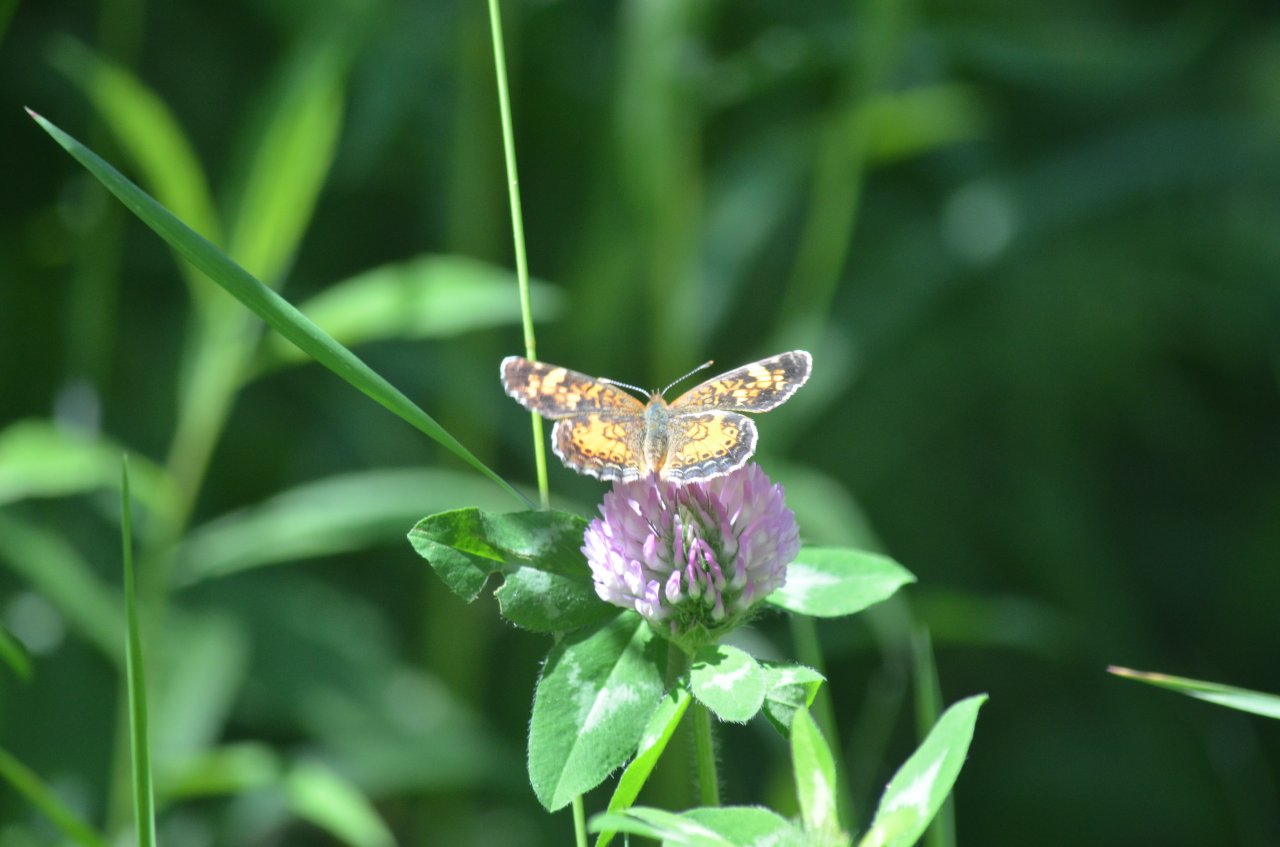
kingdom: Animalia
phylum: Arthropoda
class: Insecta
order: Lepidoptera
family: Nymphalidae
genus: Phyciodes
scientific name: Phyciodes tharos
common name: Northern Crescent
